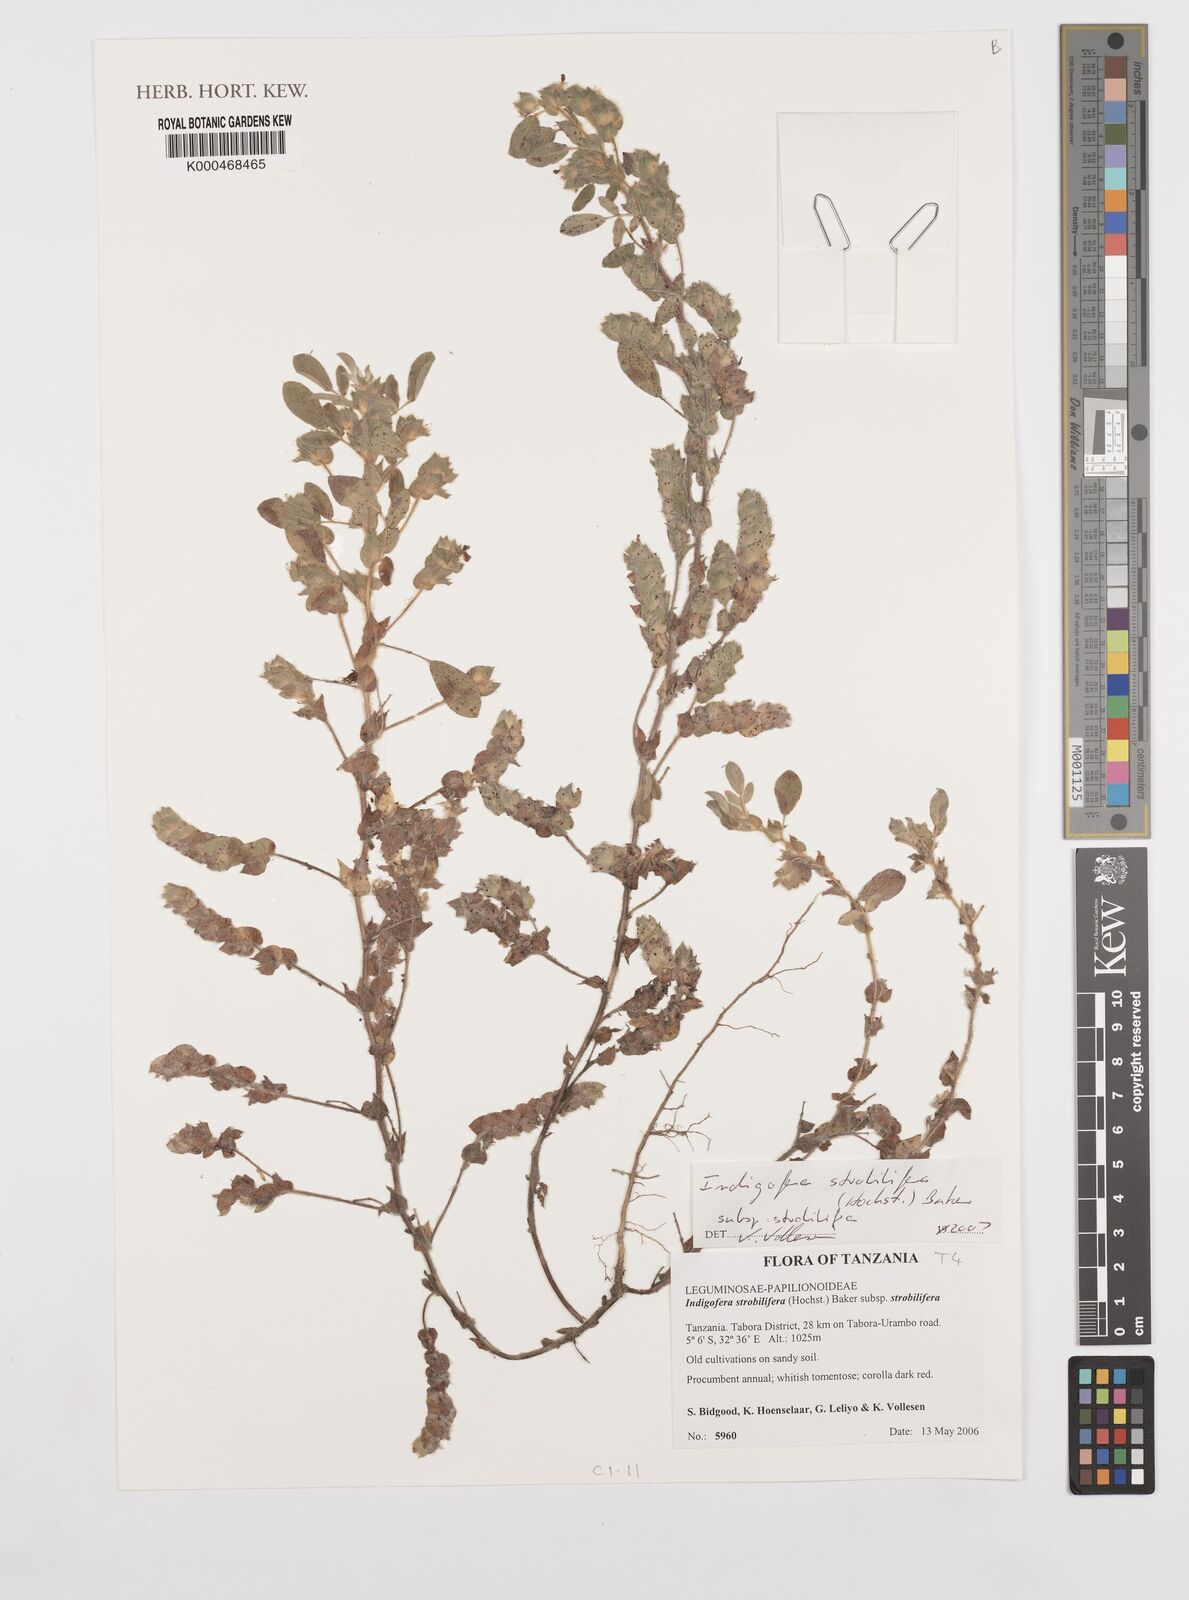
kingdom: Plantae
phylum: Tracheophyta
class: Magnoliopsida
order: Fabales
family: Fabaceae
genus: Indigofera
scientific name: Indigofera strobilifera
